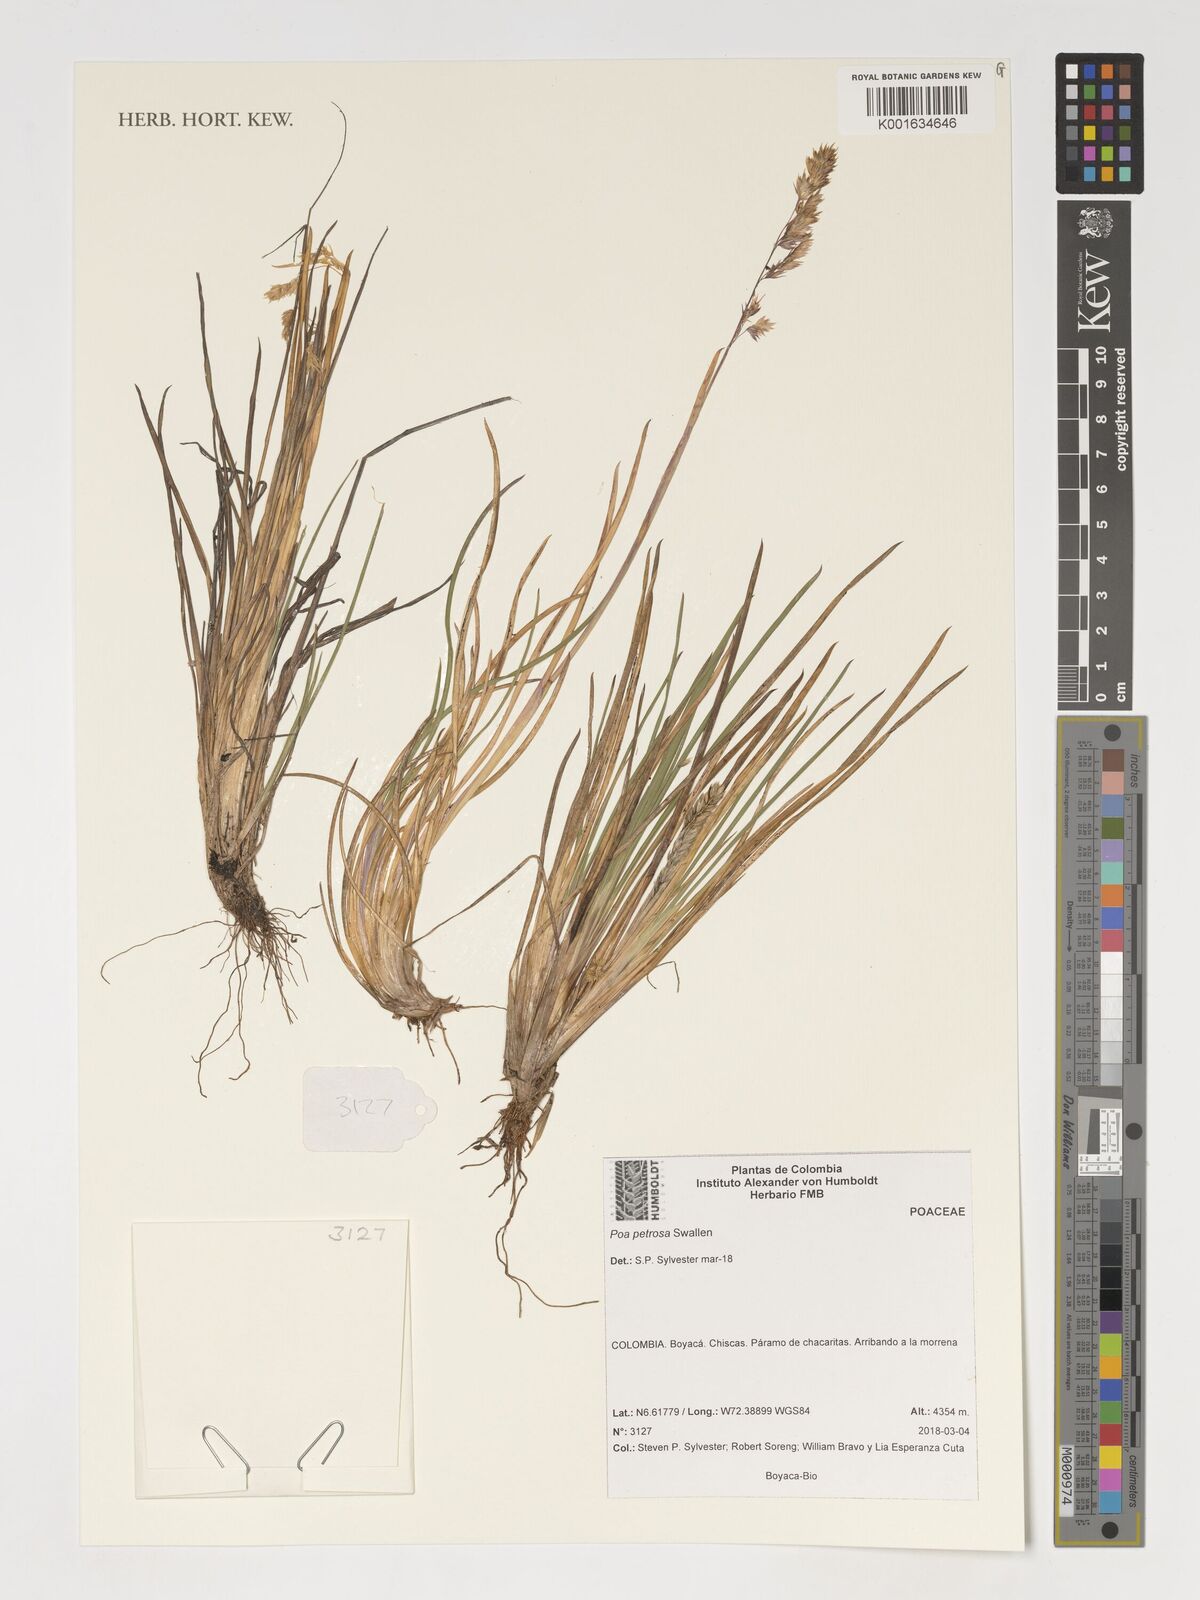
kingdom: Plantae
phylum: Tracheophyta
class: Liliopsida
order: Poales
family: Poaceae
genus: Poa
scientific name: Poa petrosa
